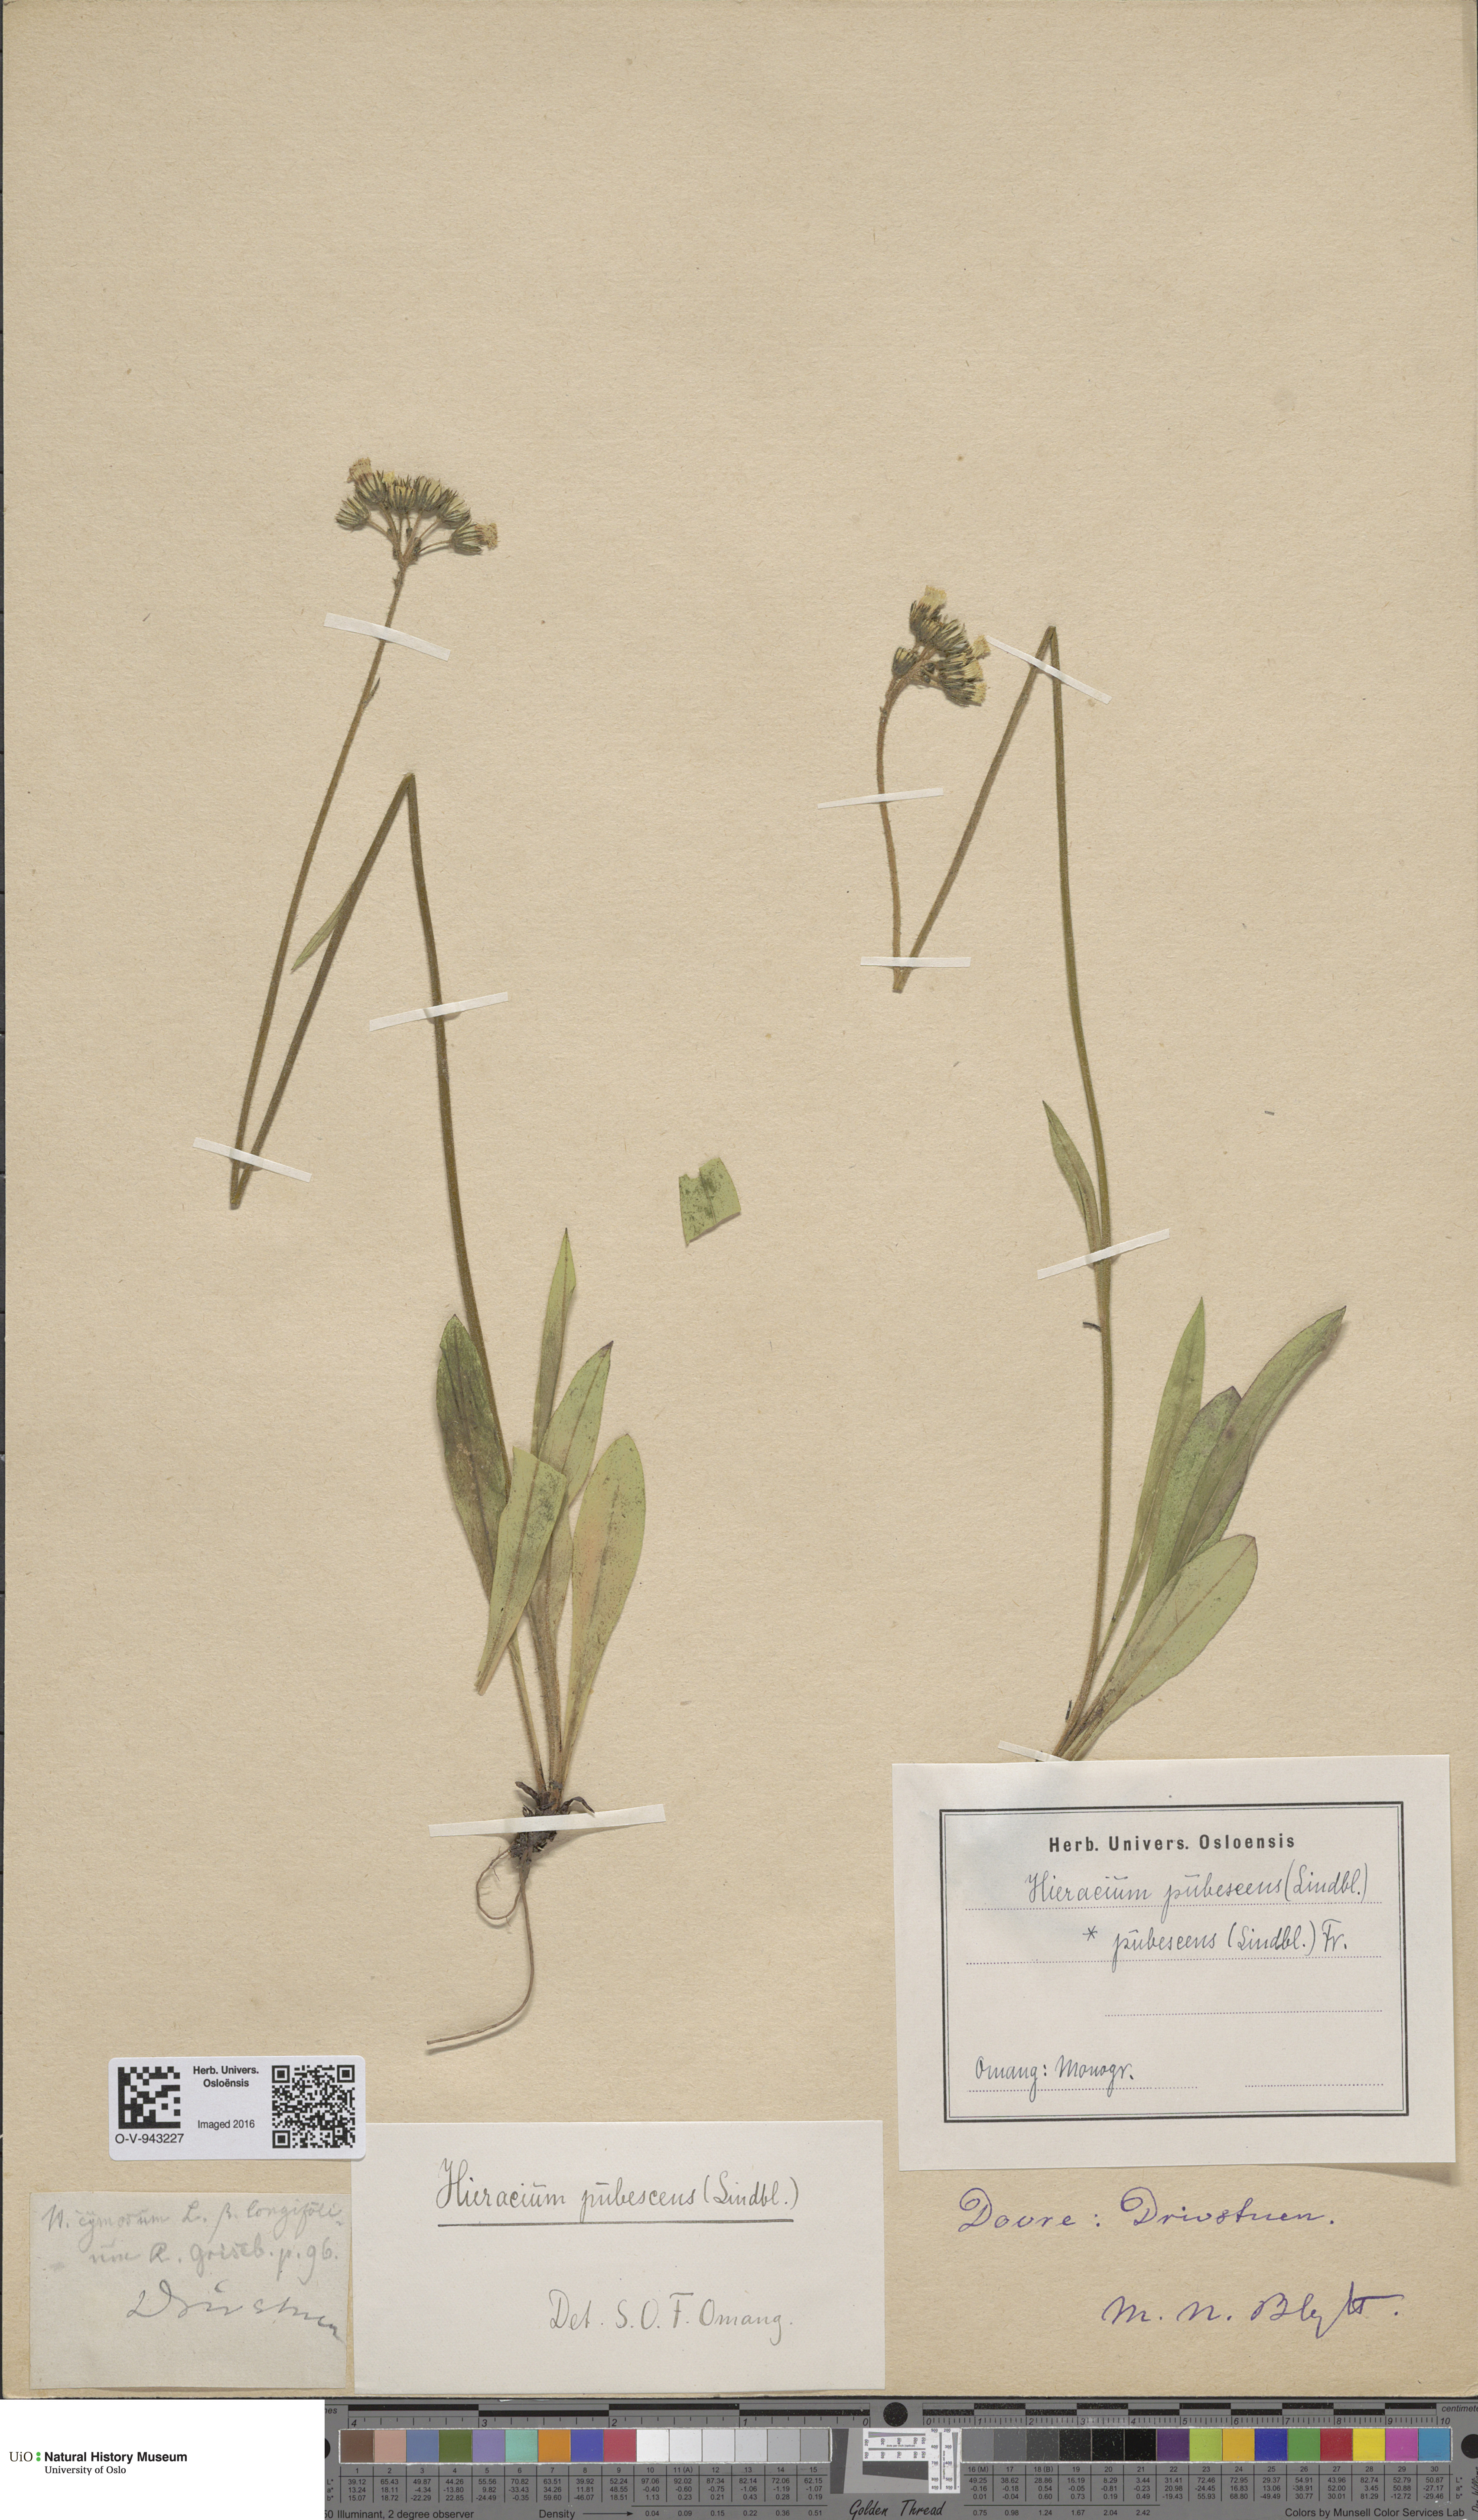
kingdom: Plantae
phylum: Tracheophyta
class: Magnoliopsida
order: Asterales
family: Asteraceae
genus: Pilosella
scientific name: Pilosella cymosa
